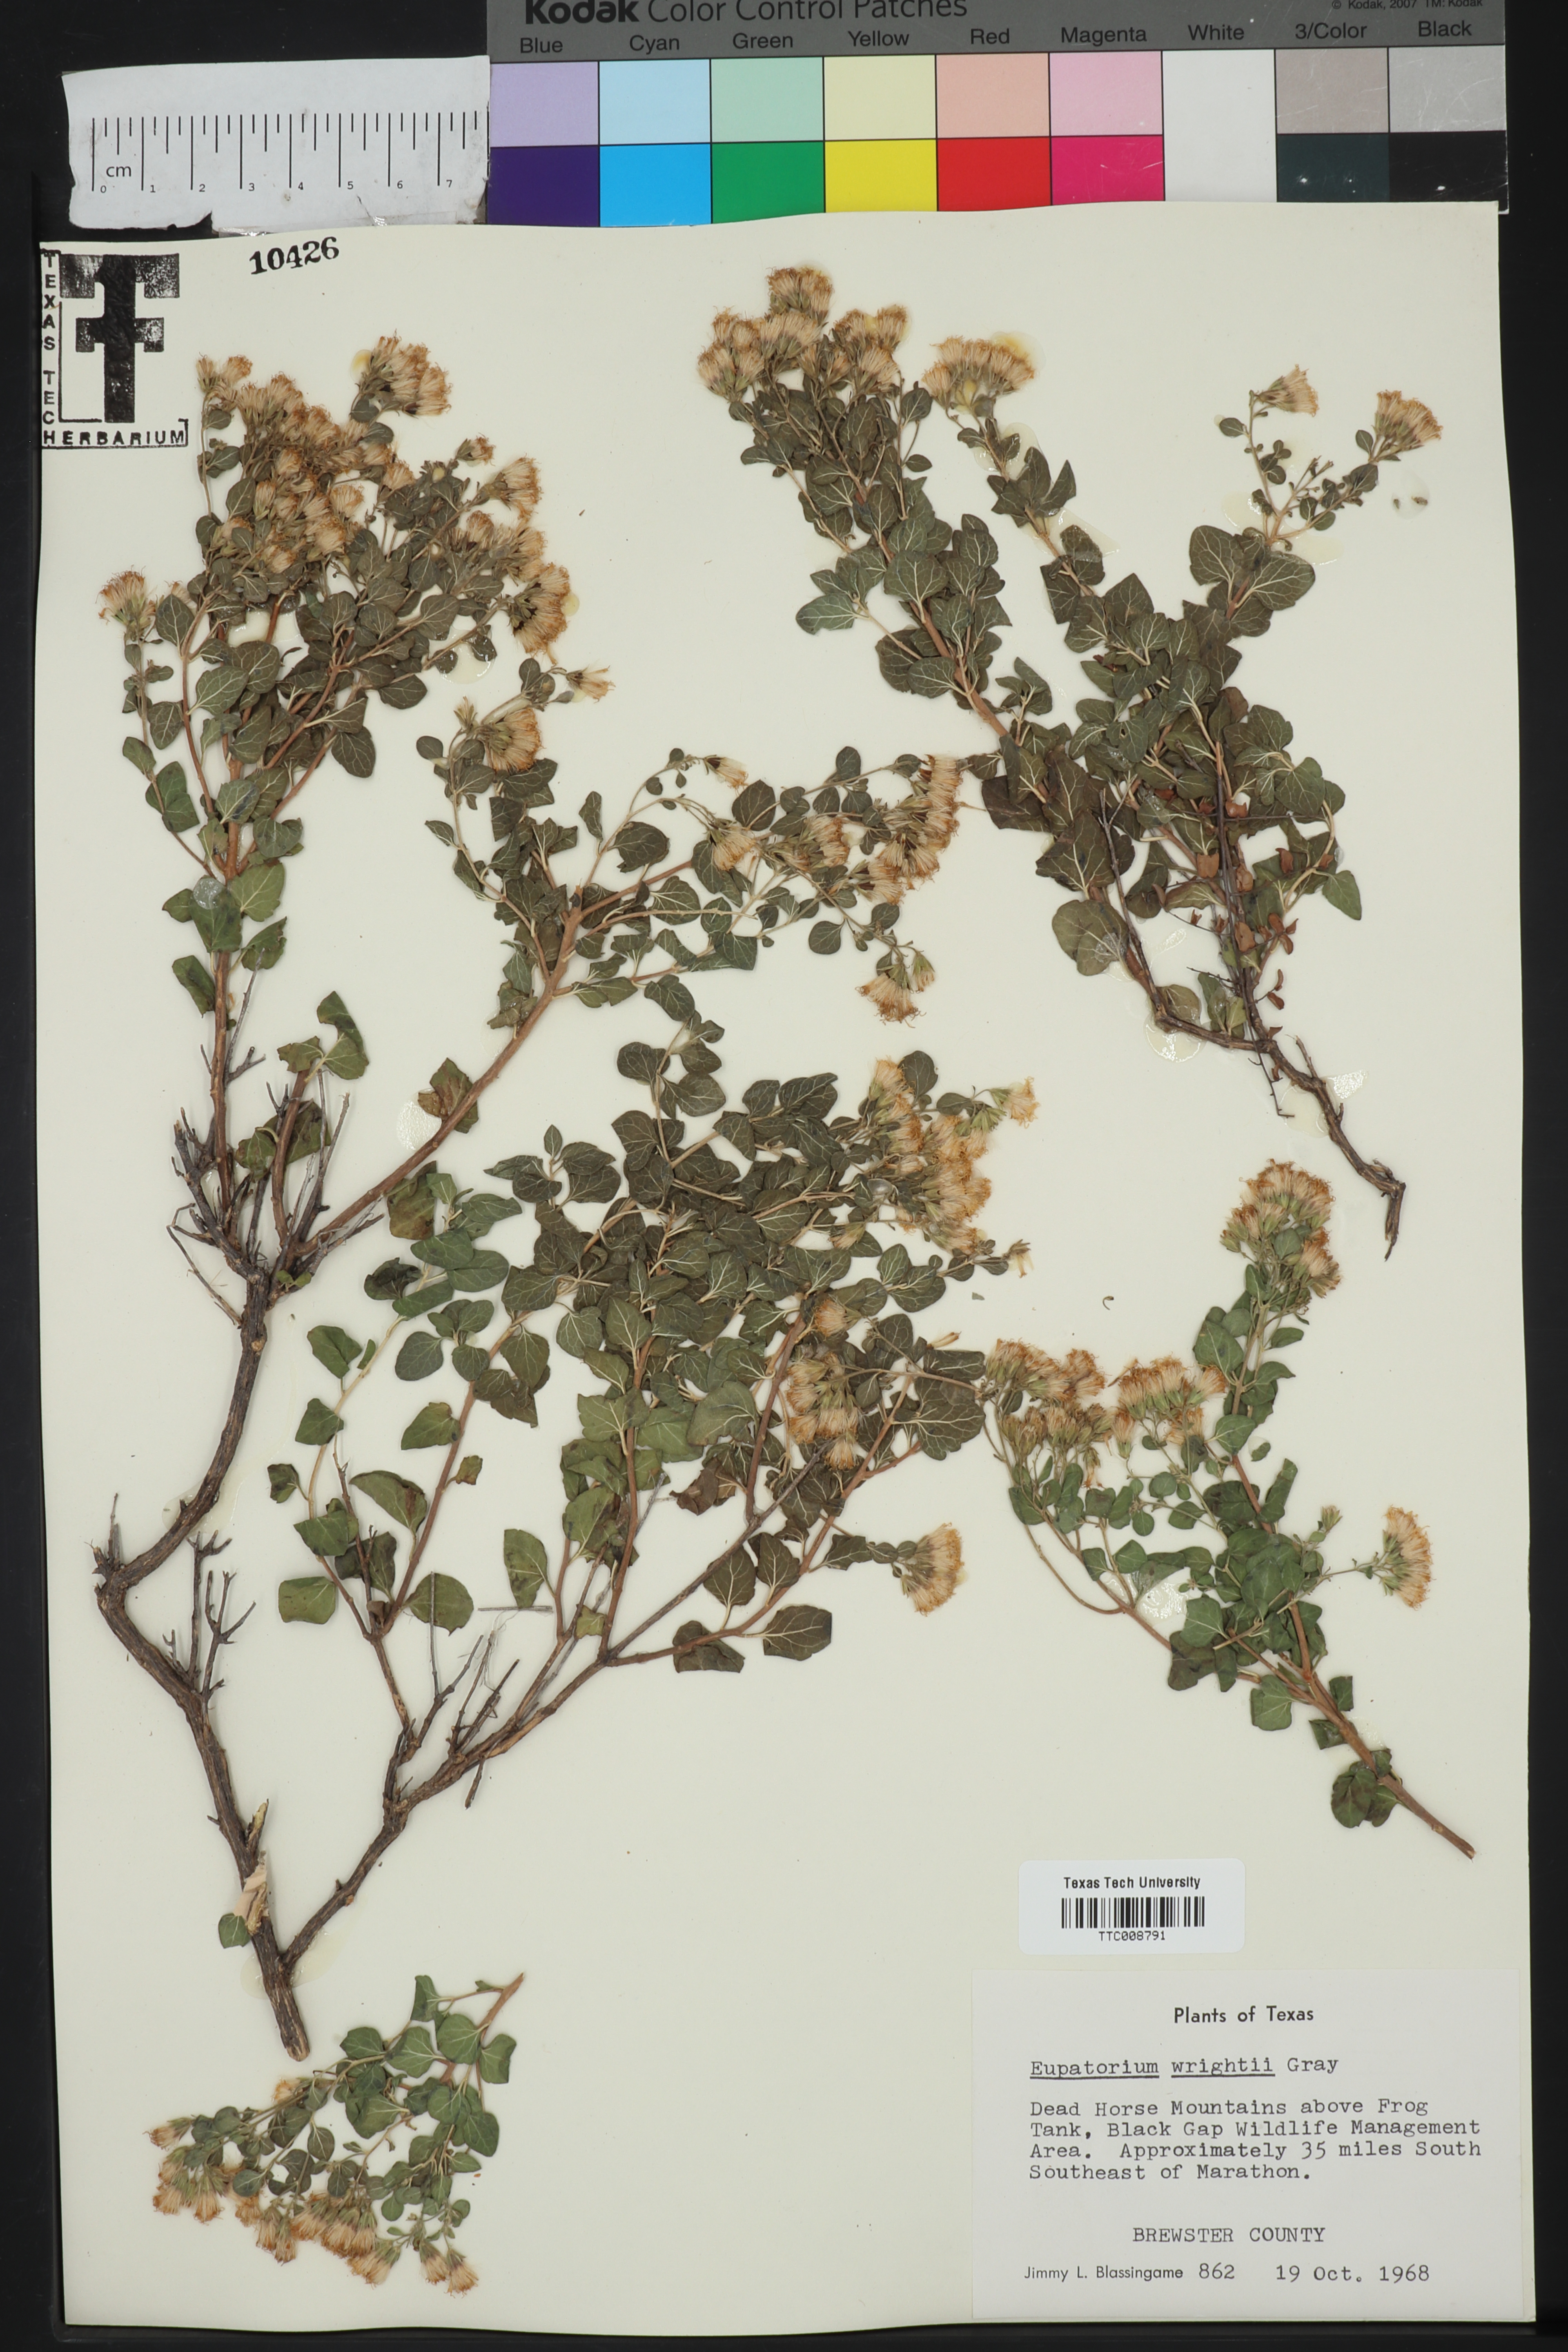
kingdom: Plantae
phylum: Tracheophyta
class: Magnoliopsida
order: Asterales
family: Asteraceae
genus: Ageratina
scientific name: Ageratina wrightii
